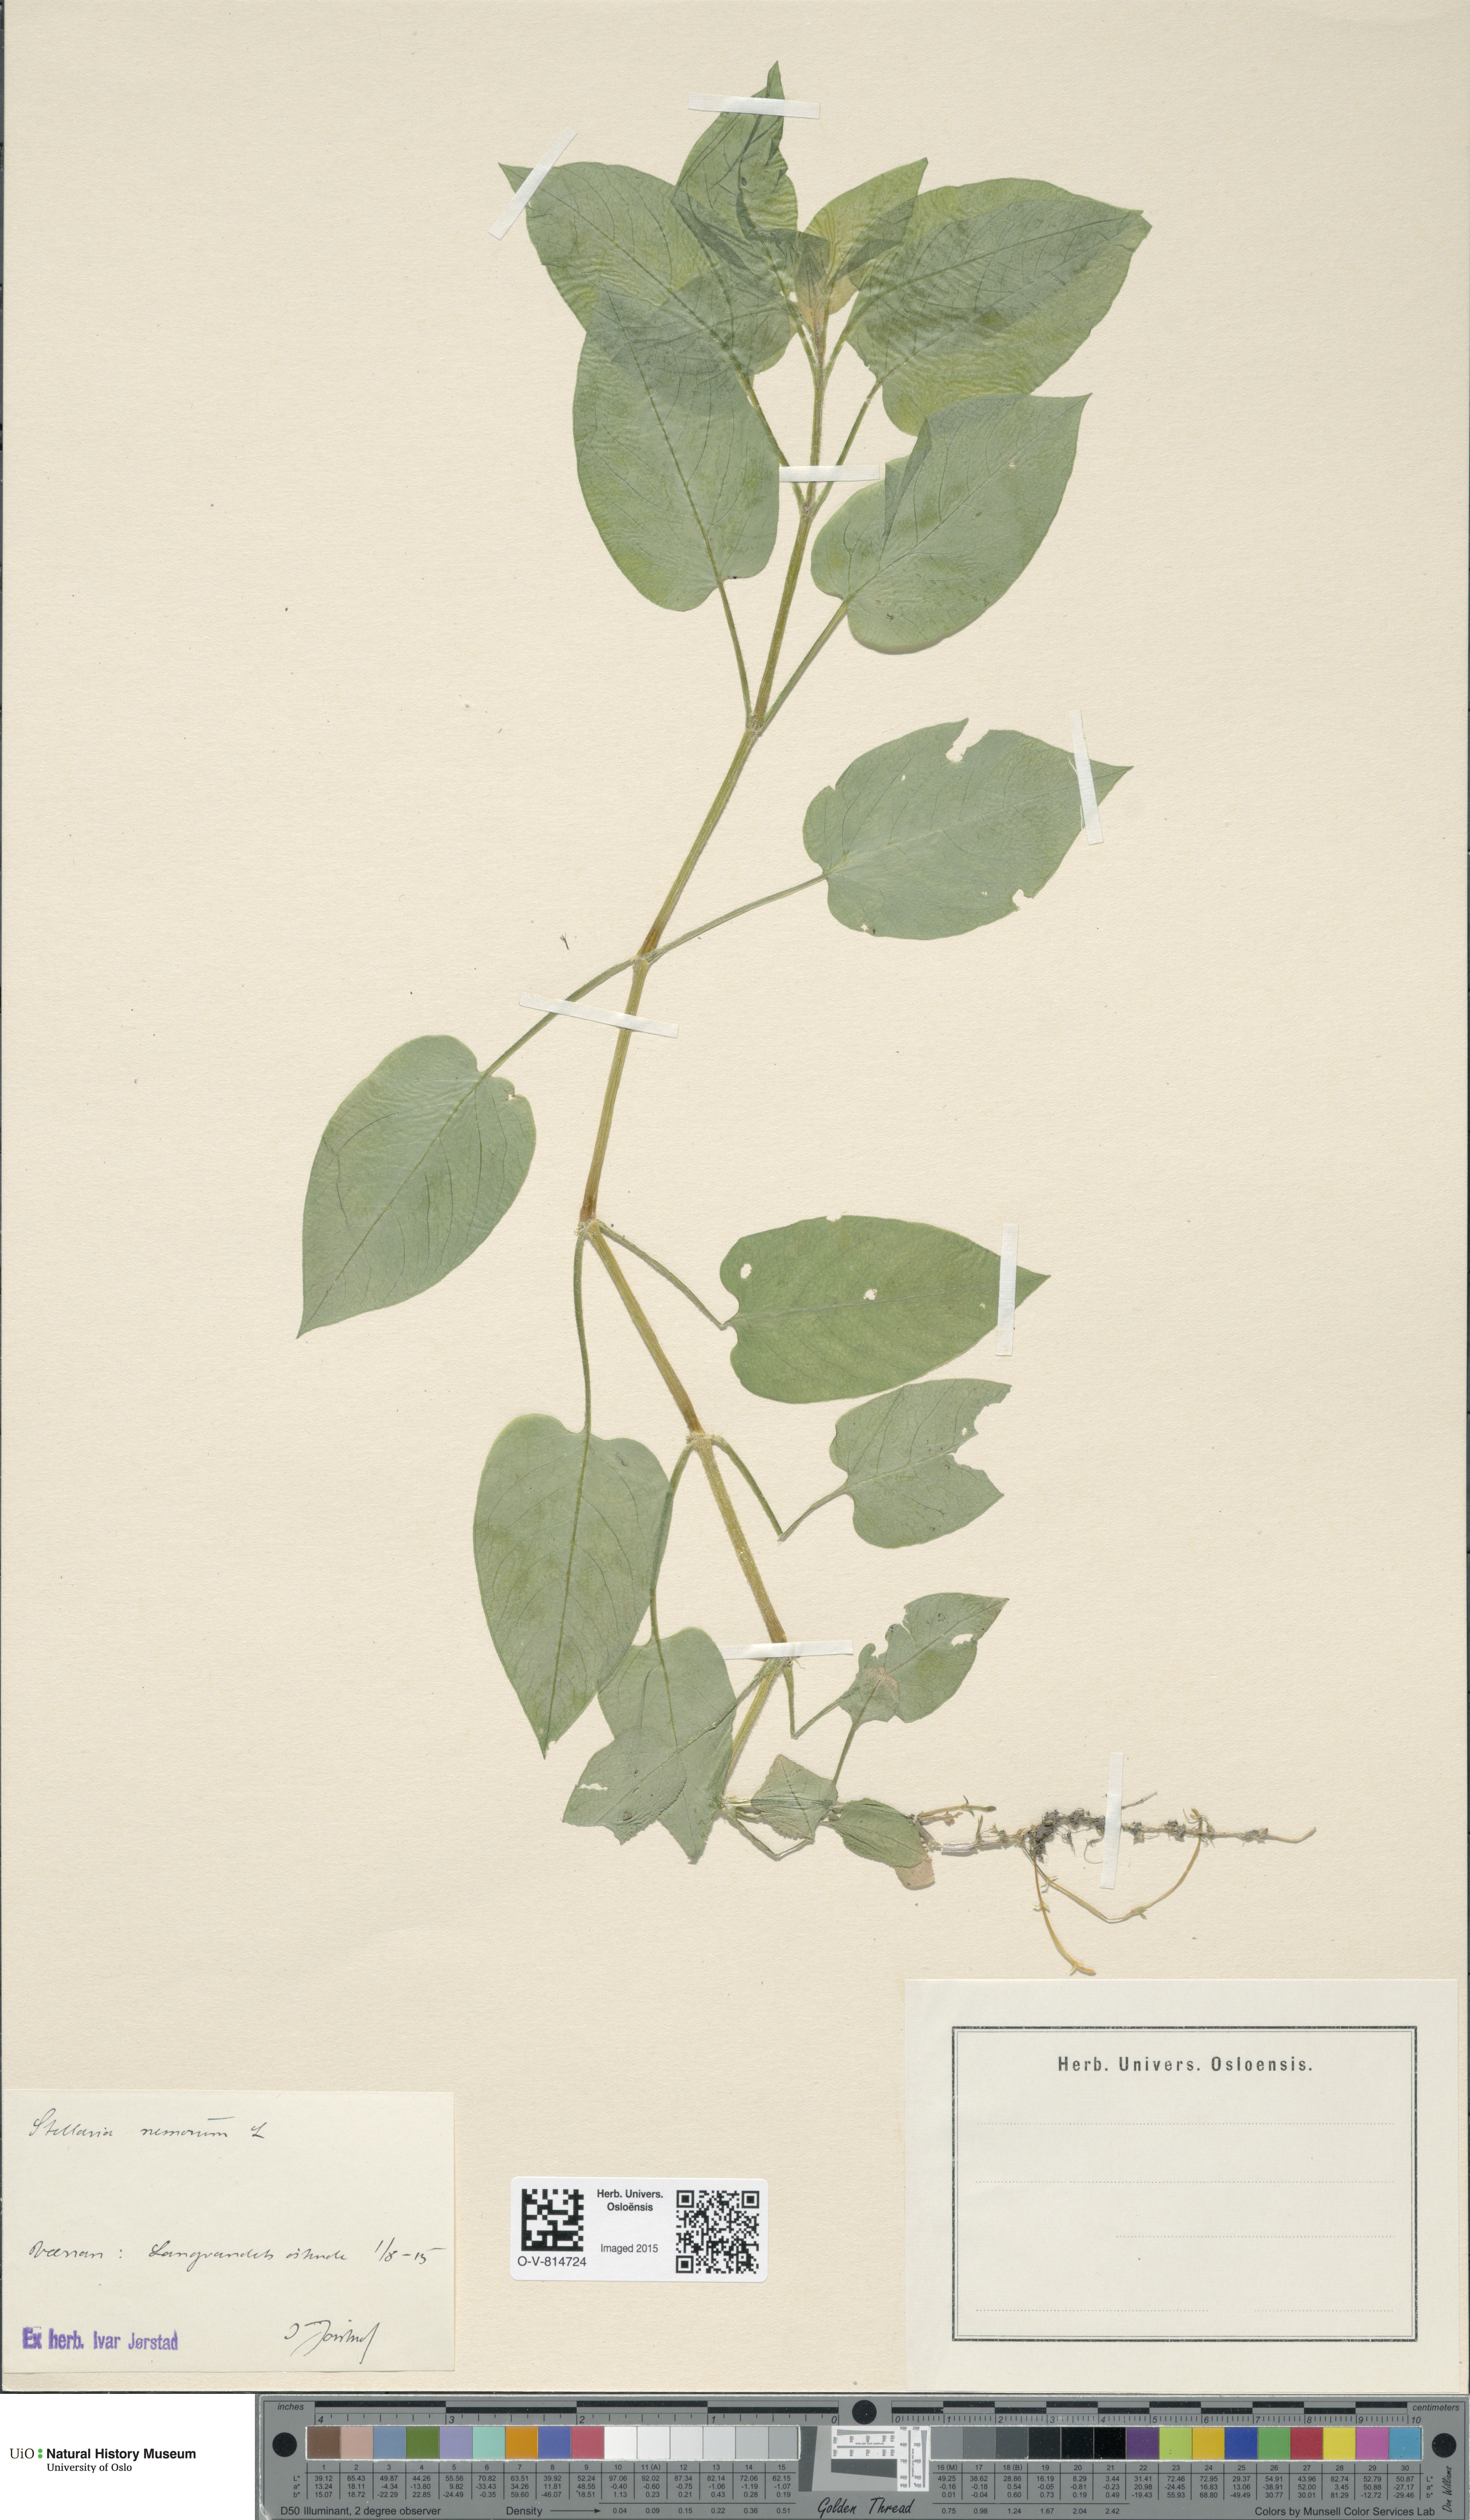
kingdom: Plantae
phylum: Tracheophyta
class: Magnoliopsida
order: Caryophyllales
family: Caryophyllaceae
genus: Stellaria
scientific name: Stellaria nemorum
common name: Wood stitchwort
